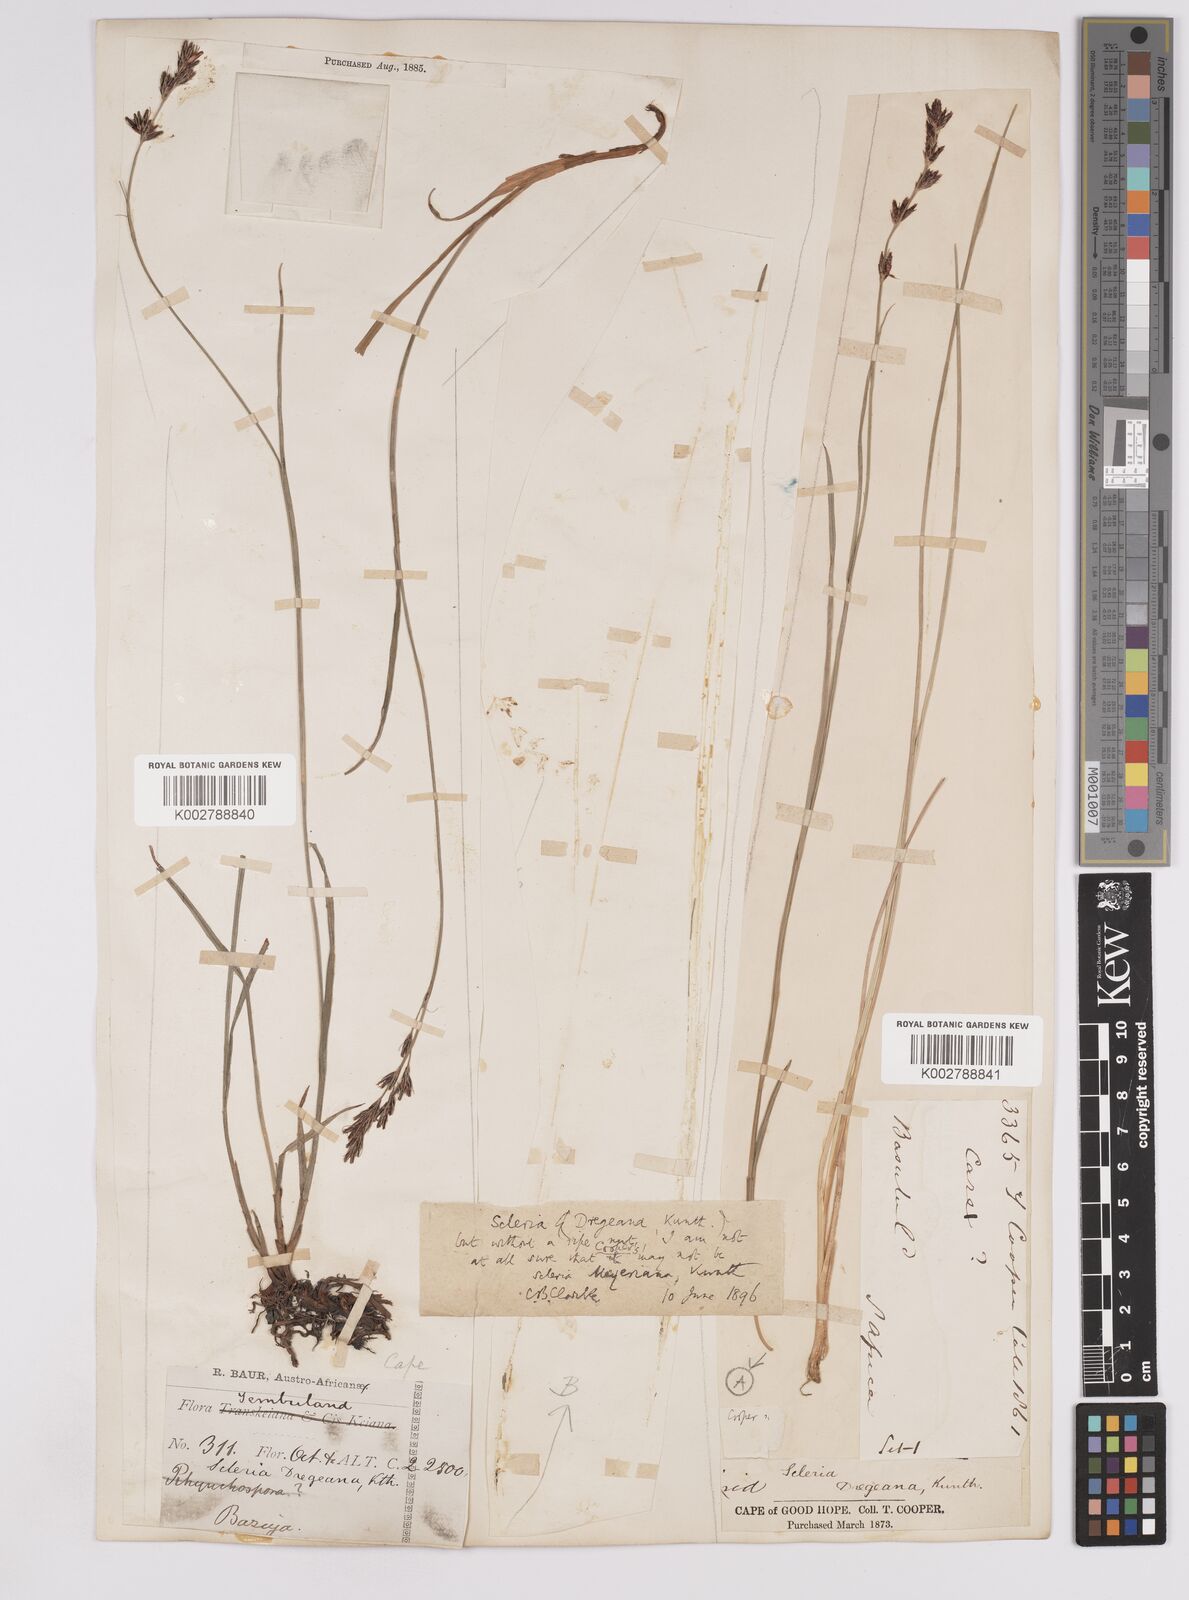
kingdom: Plantae
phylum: Tracheophyta
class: Liliopsida
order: Poales
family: Cyperaceae
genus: Scleria
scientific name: Scleria dregeana
